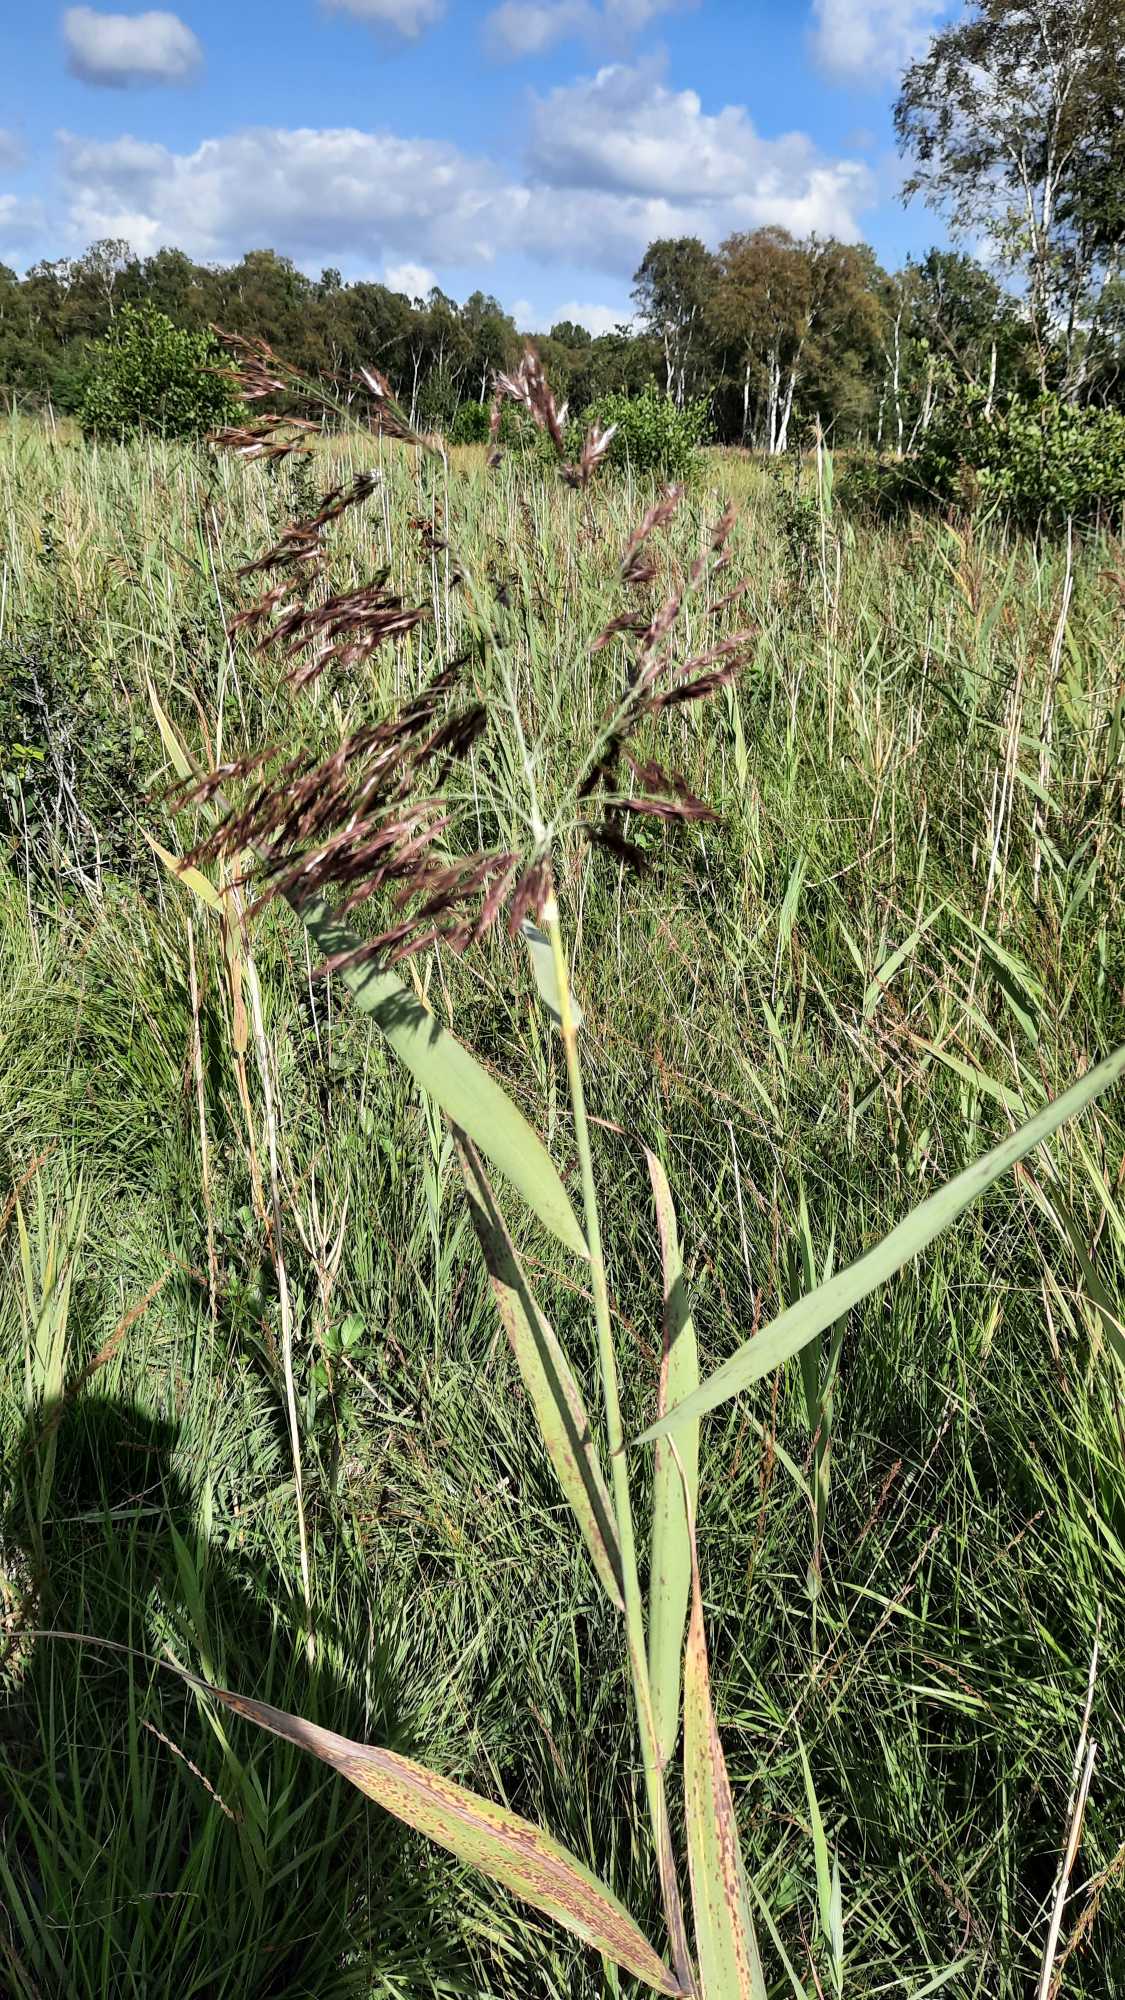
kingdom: Plantae
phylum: Tracheophyta
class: Liliopsida
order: Poales
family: Poaceae
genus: Phragmites
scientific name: Phragmites australis
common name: Tagrør
